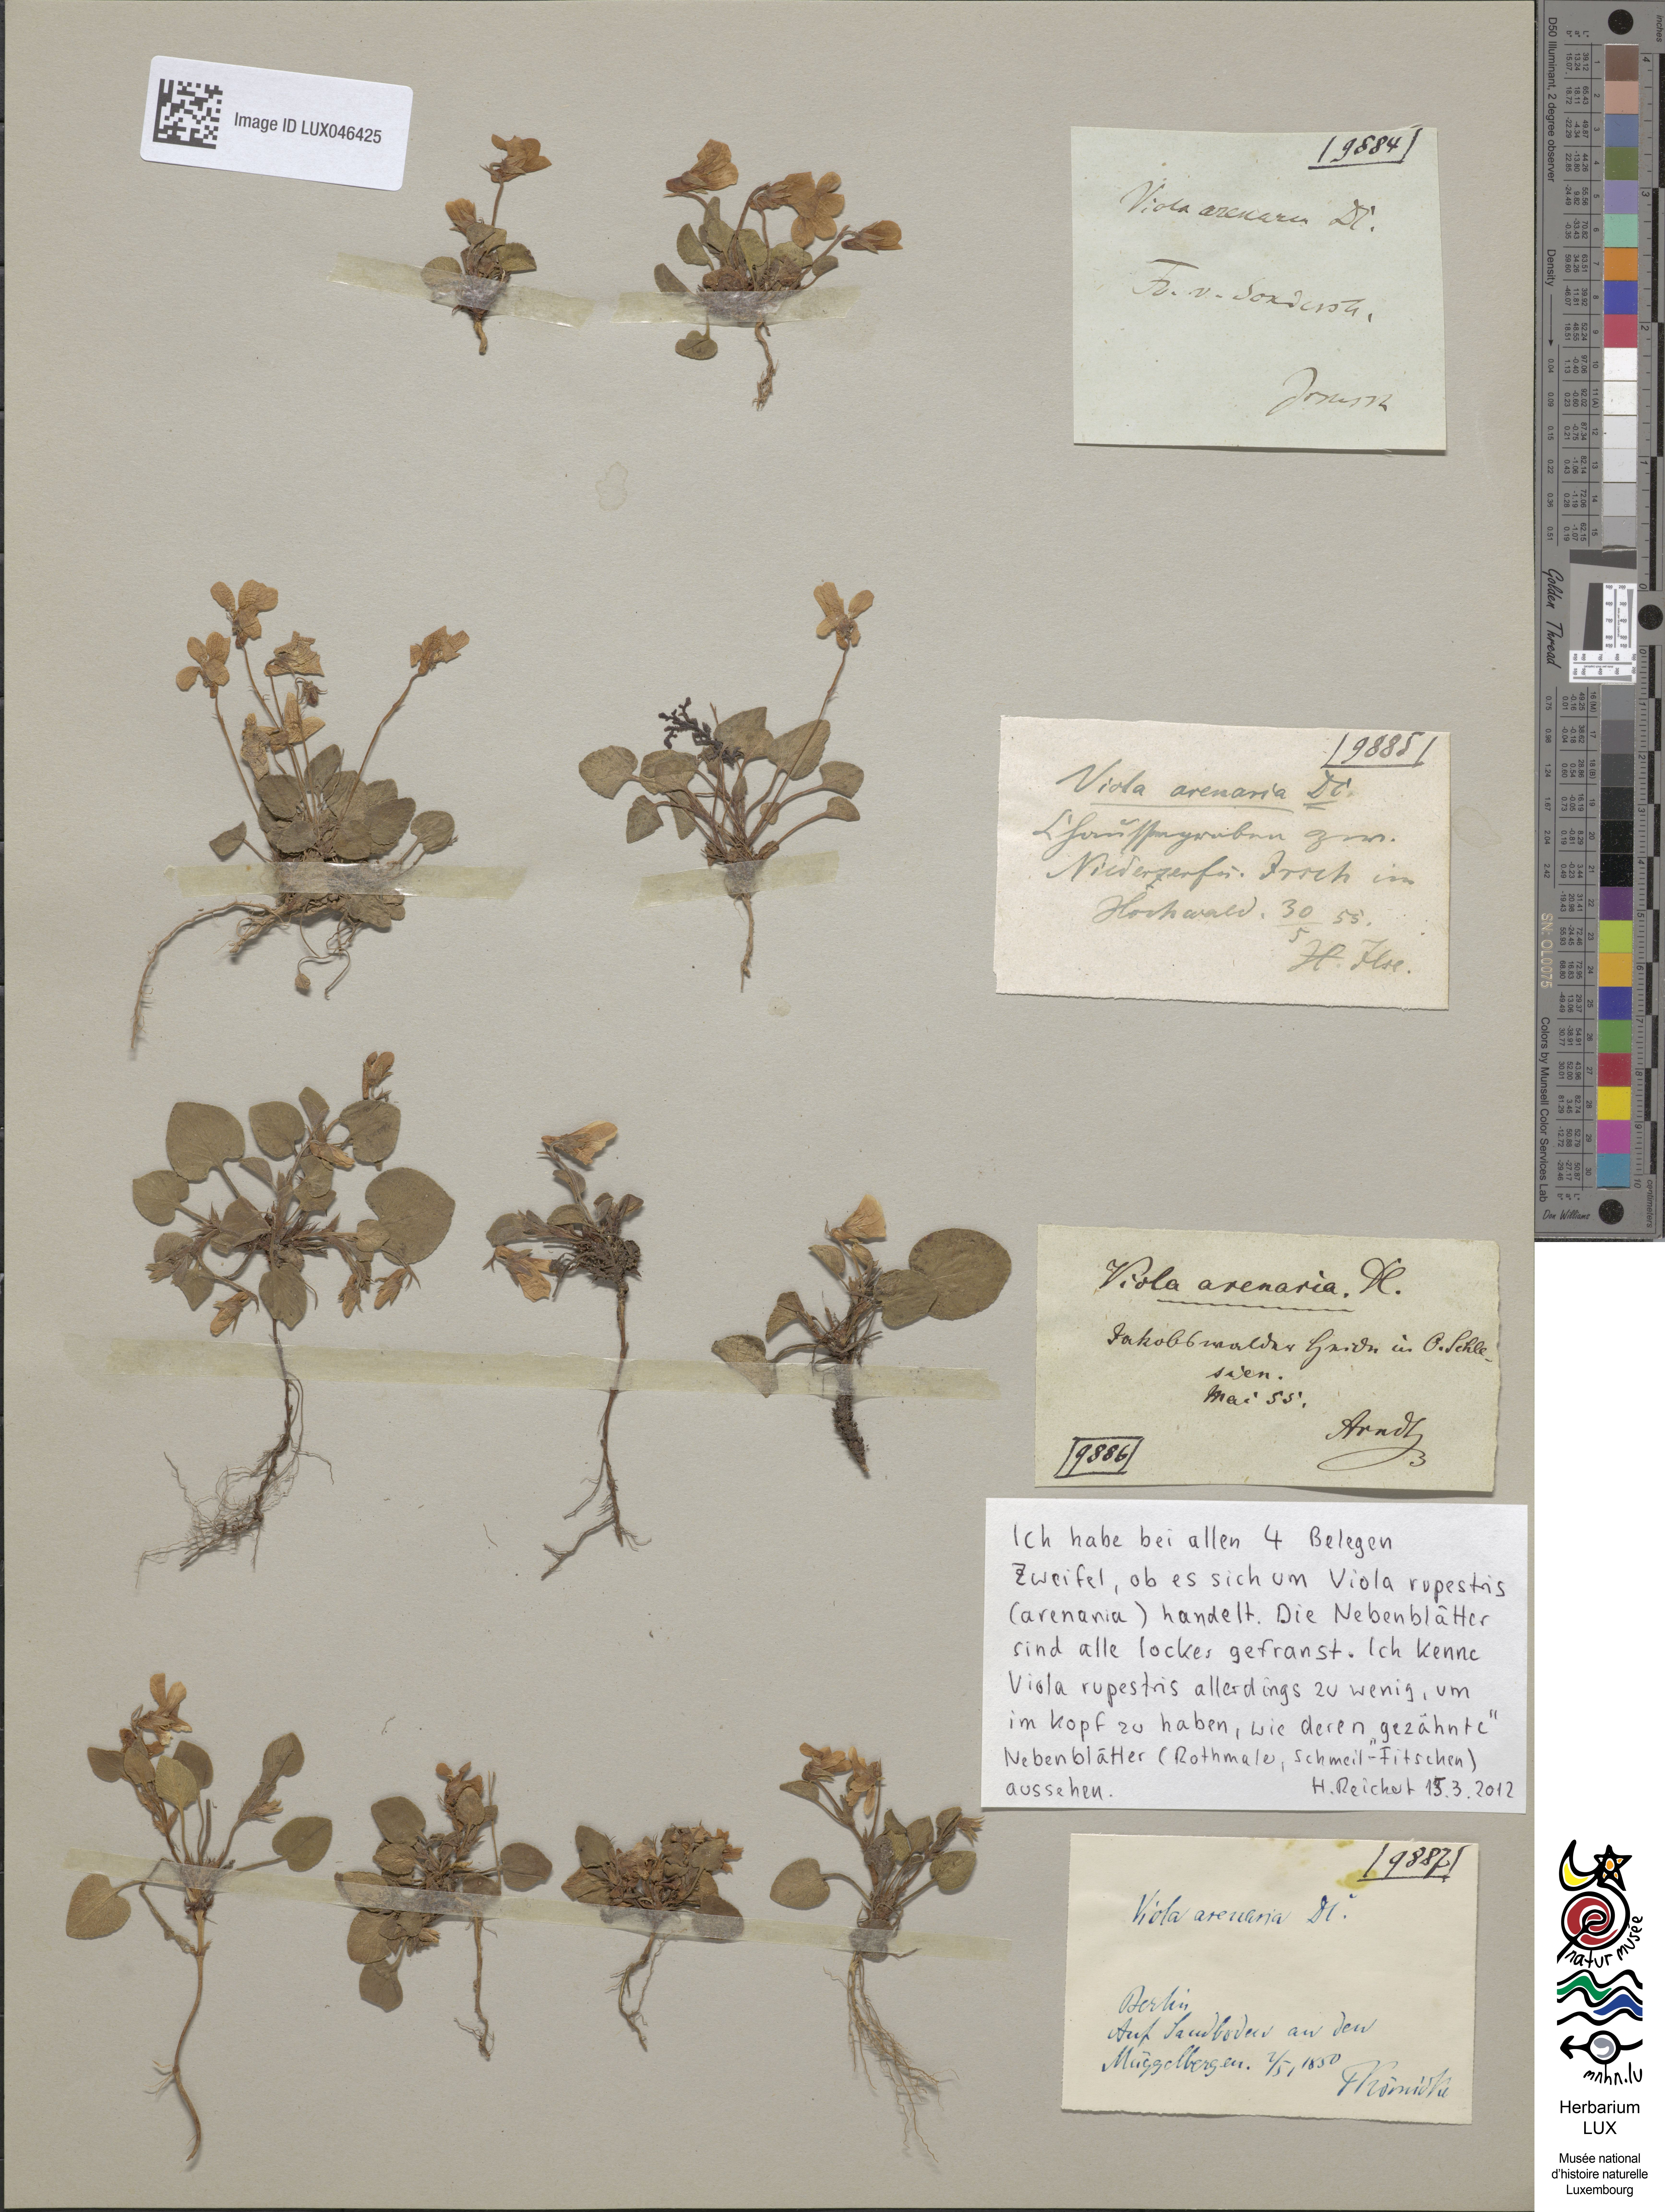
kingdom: Plantae
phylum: Tracheophyta
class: Magnoliopsida
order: Malpighiales
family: Violaceae
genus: Viola
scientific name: Viola rupestris
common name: Teesdale violet
